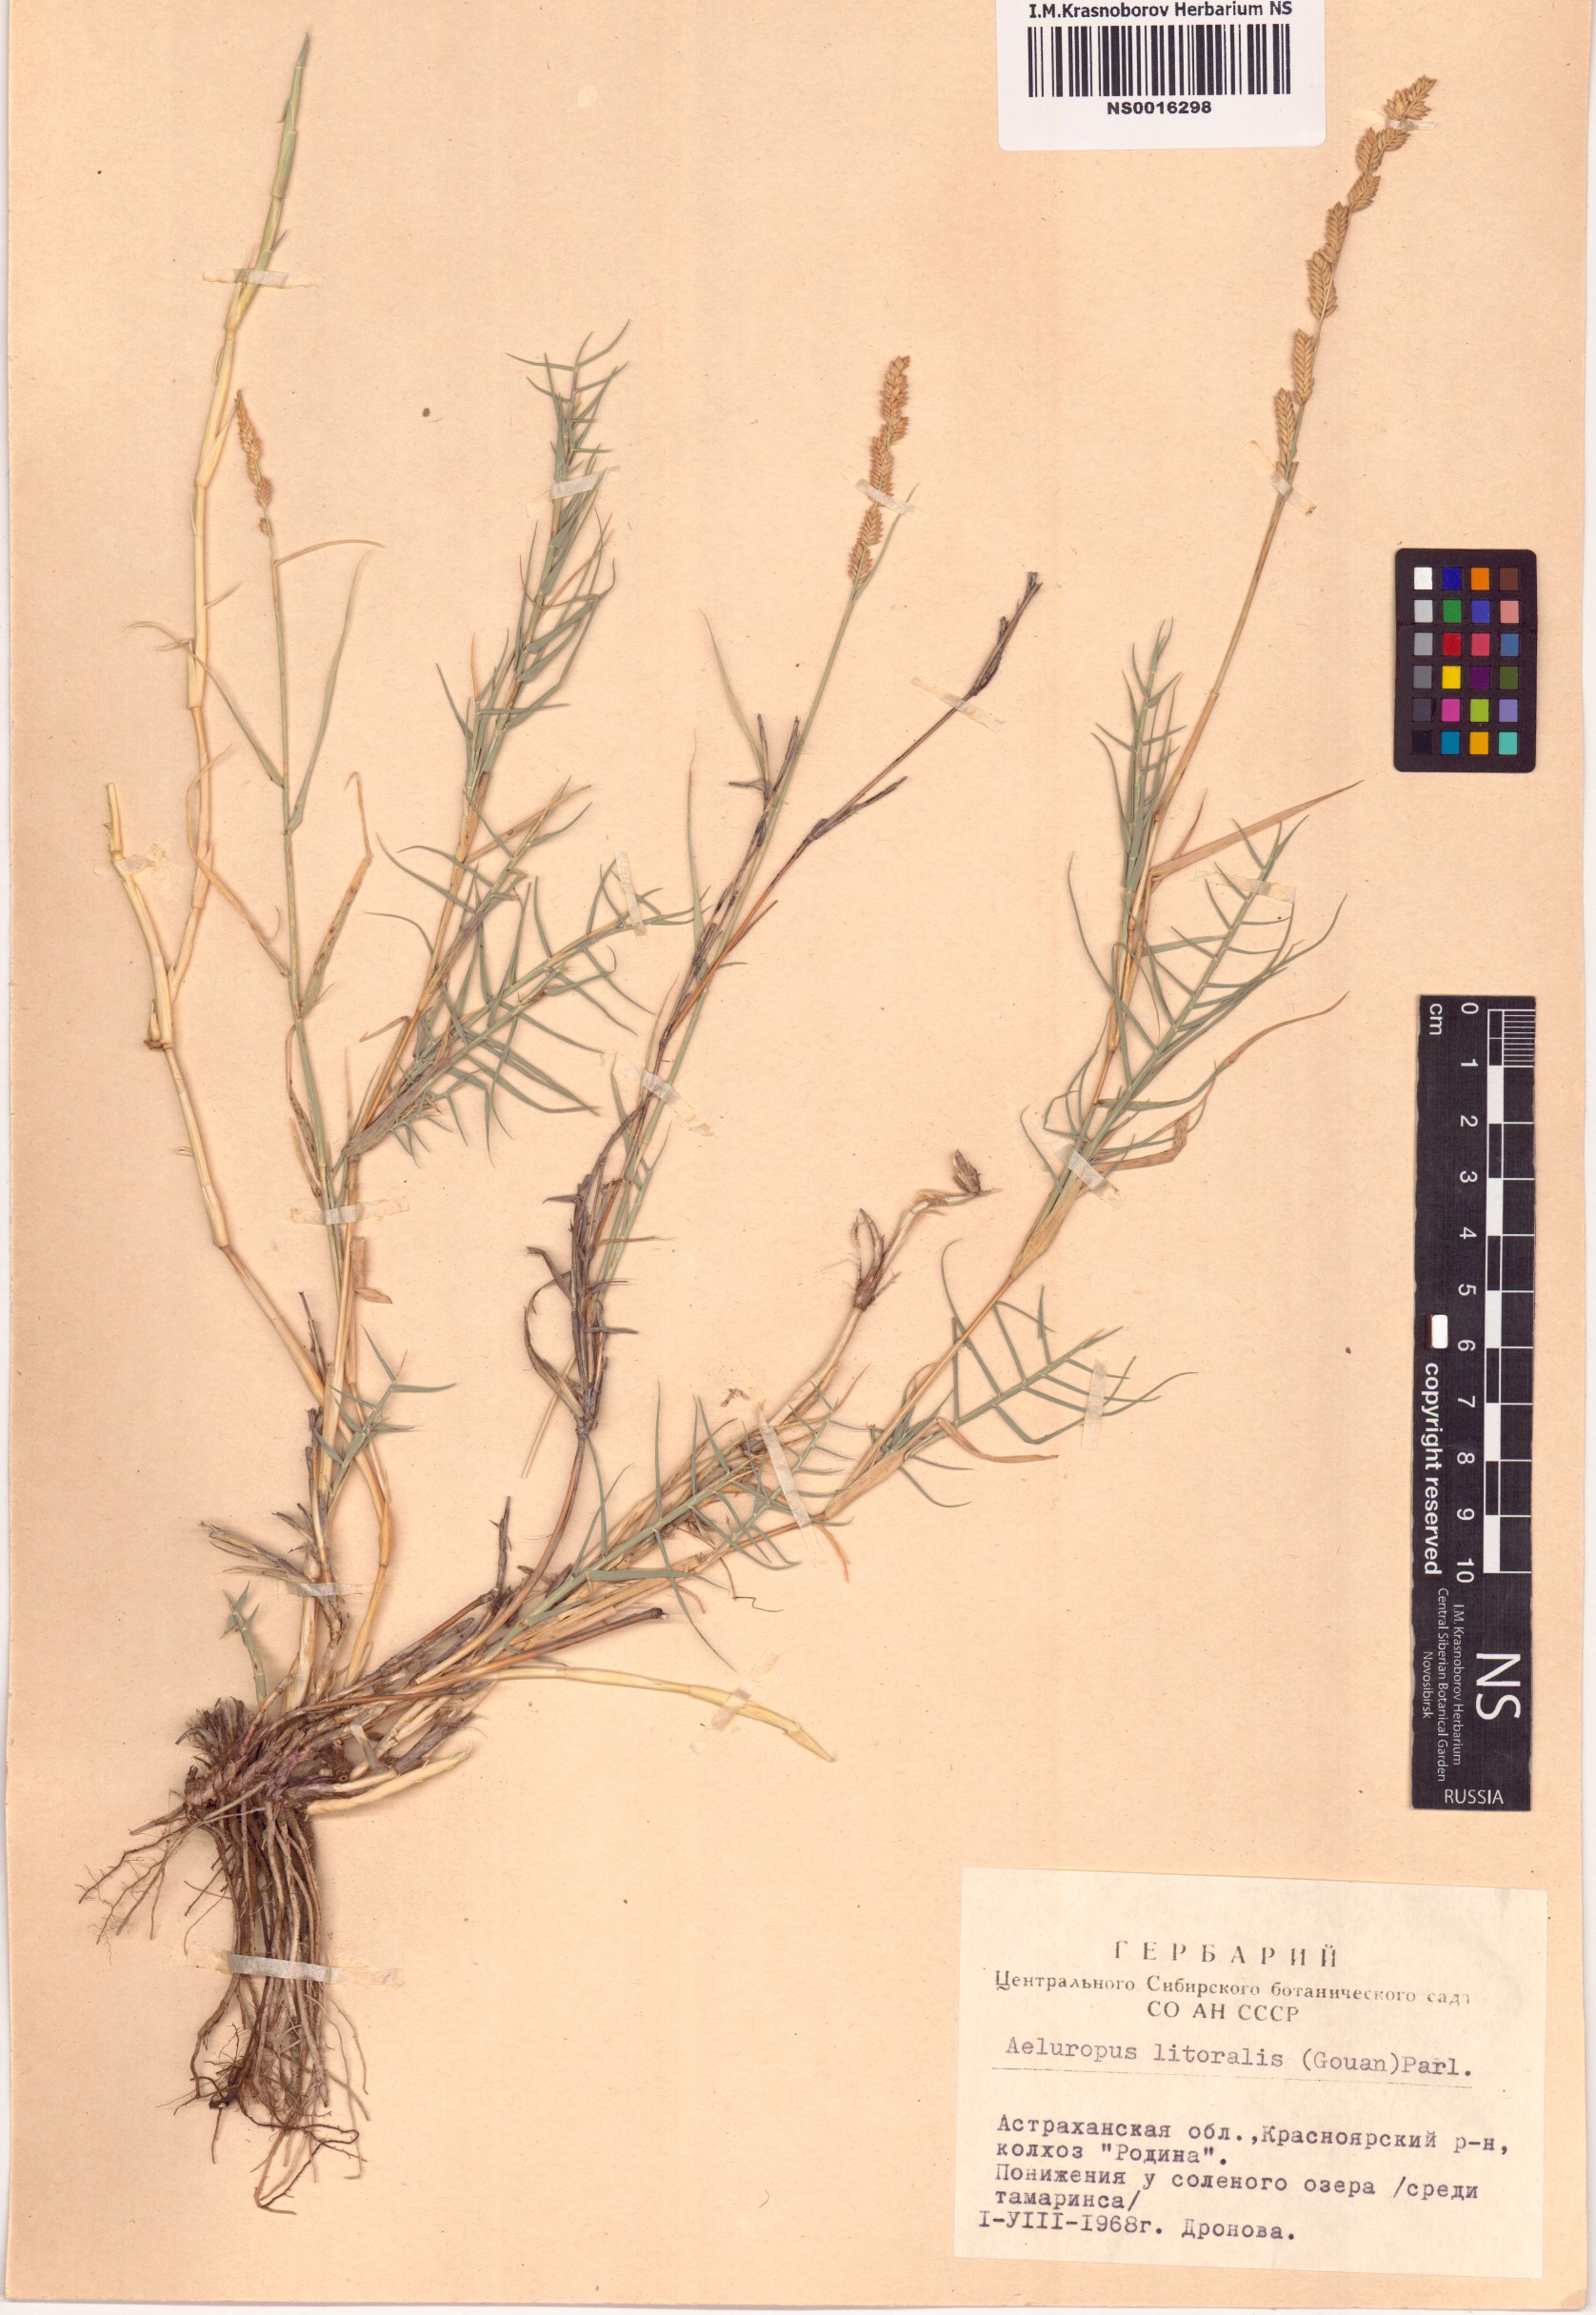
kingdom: Plantae
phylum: Tracheophyta
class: Liliopsida
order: Poales
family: Poaceae
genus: Aeluropus
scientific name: Aeluropus littoralis
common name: Indian walnut
